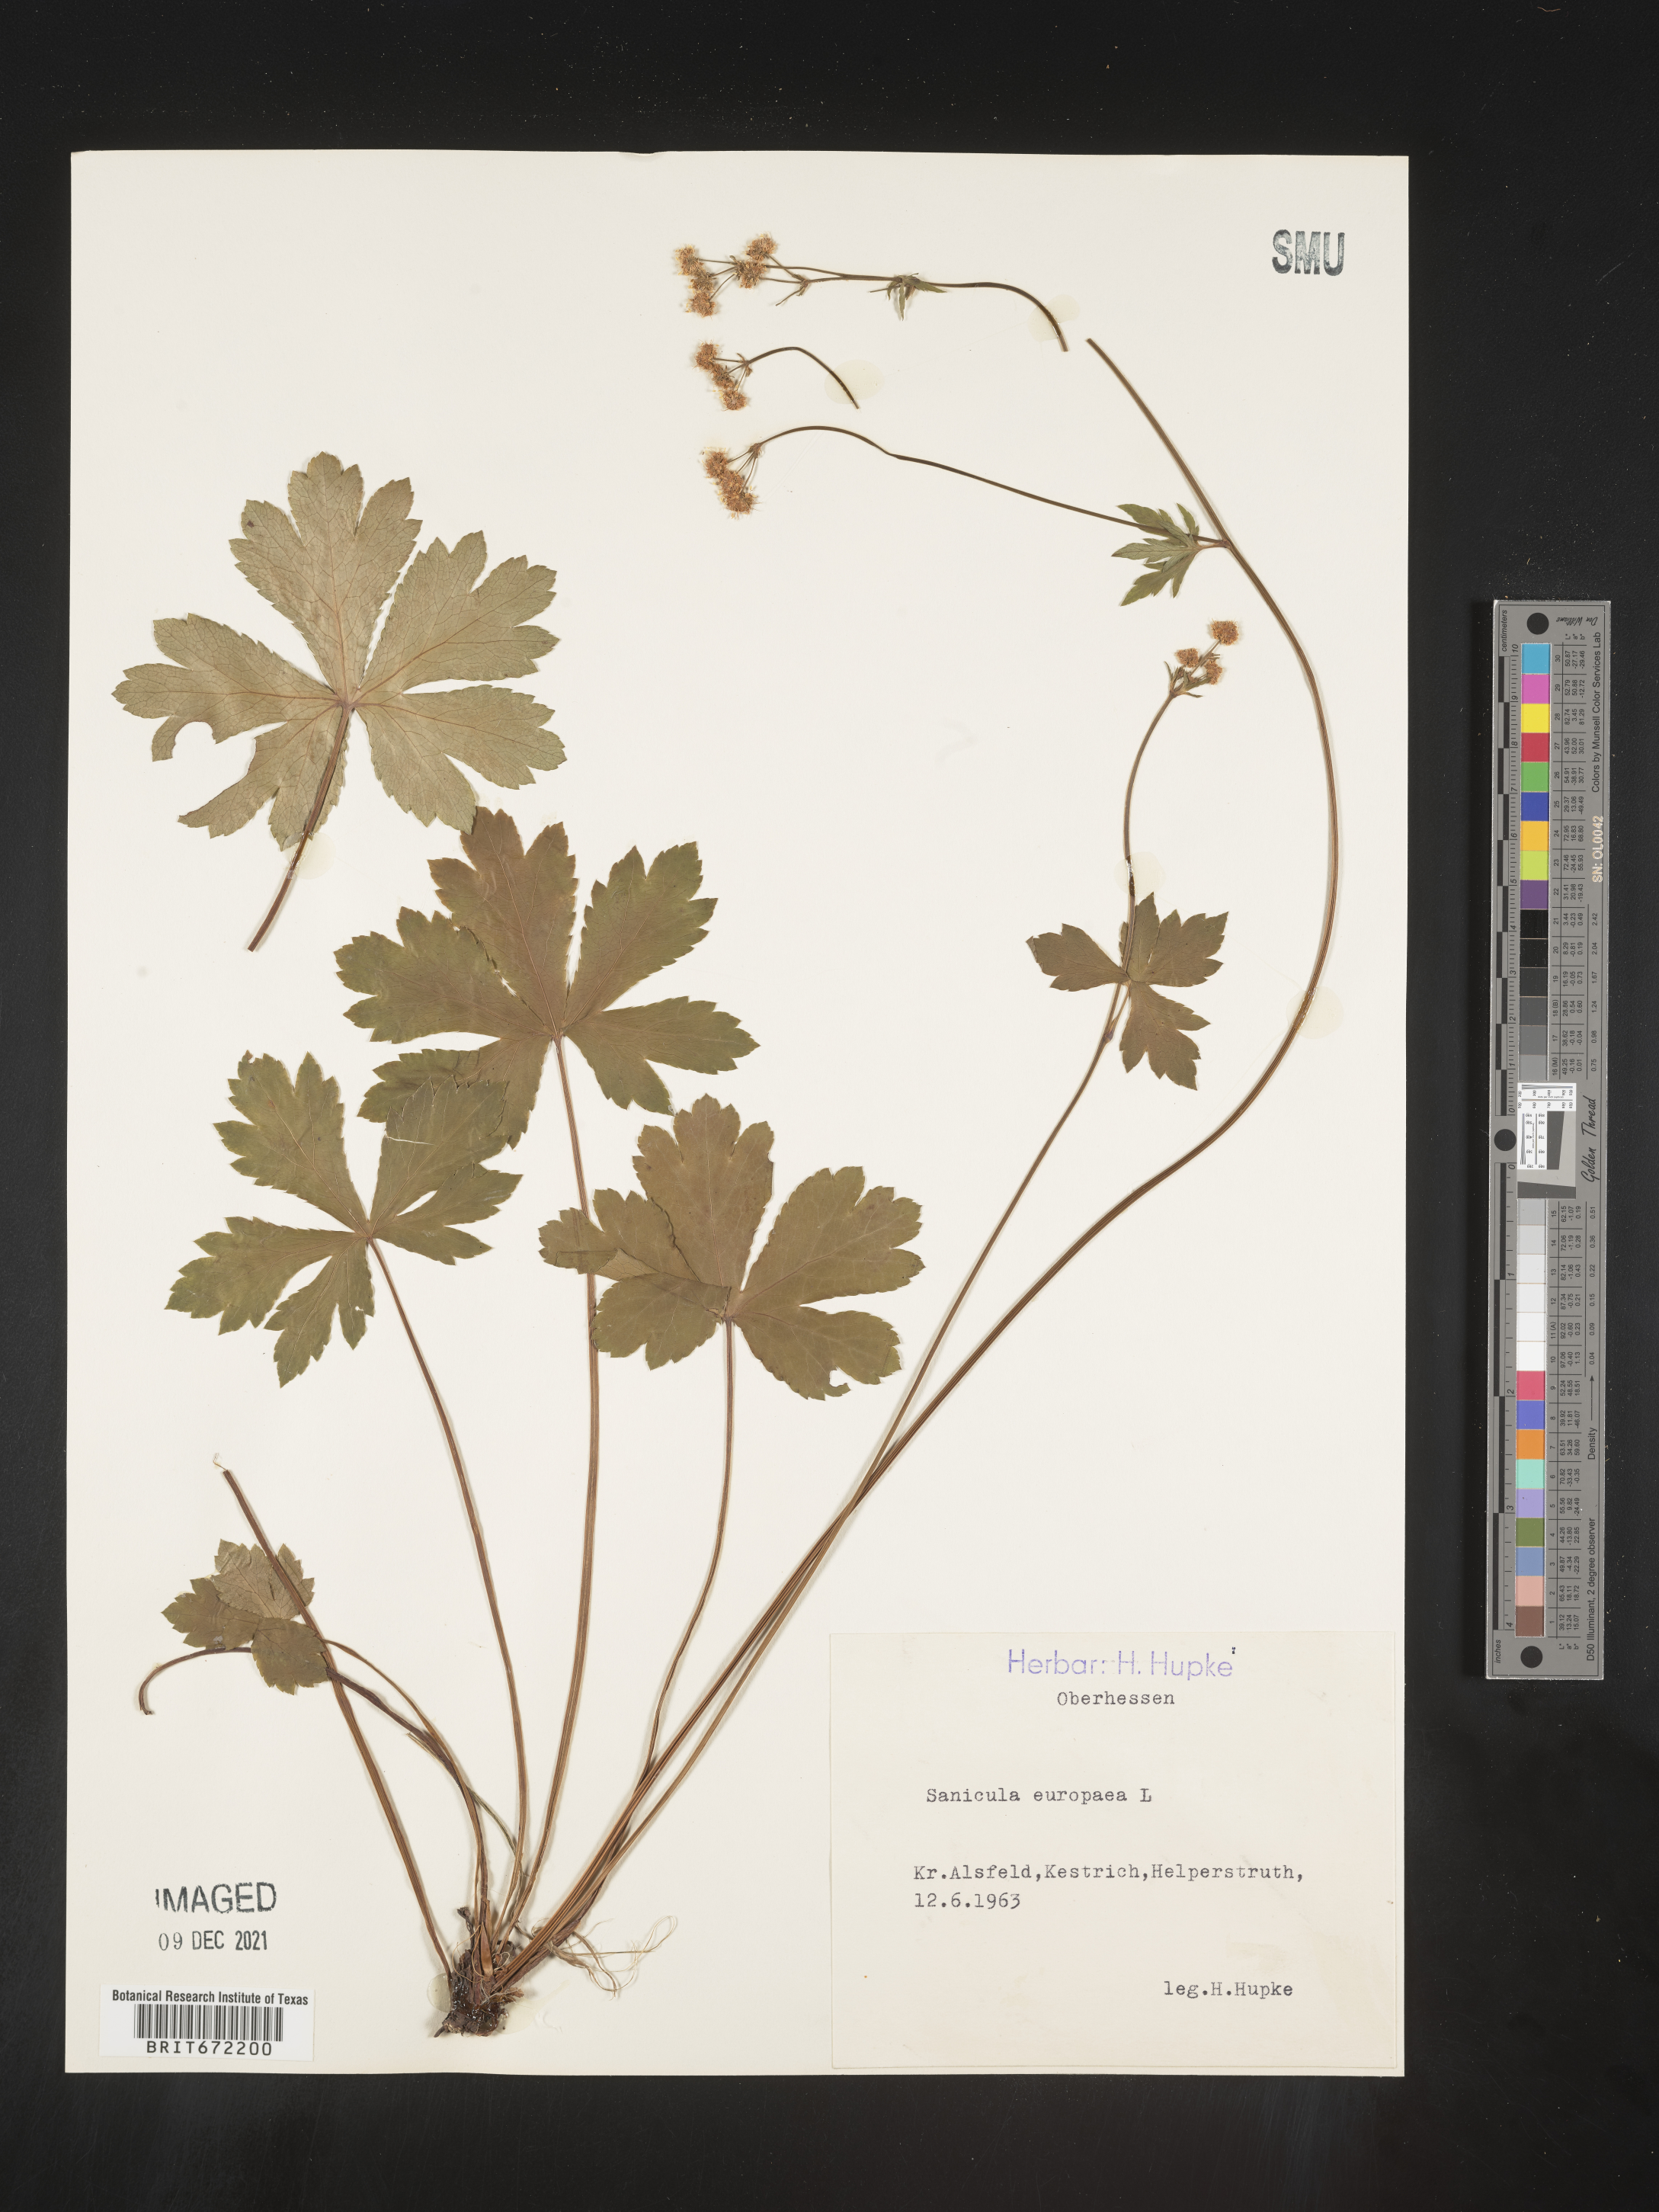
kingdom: Plantae
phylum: Tracheophyta
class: Magnoliopsida
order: Apiales
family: Apiaceae
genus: Sanicula
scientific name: Sanicula
